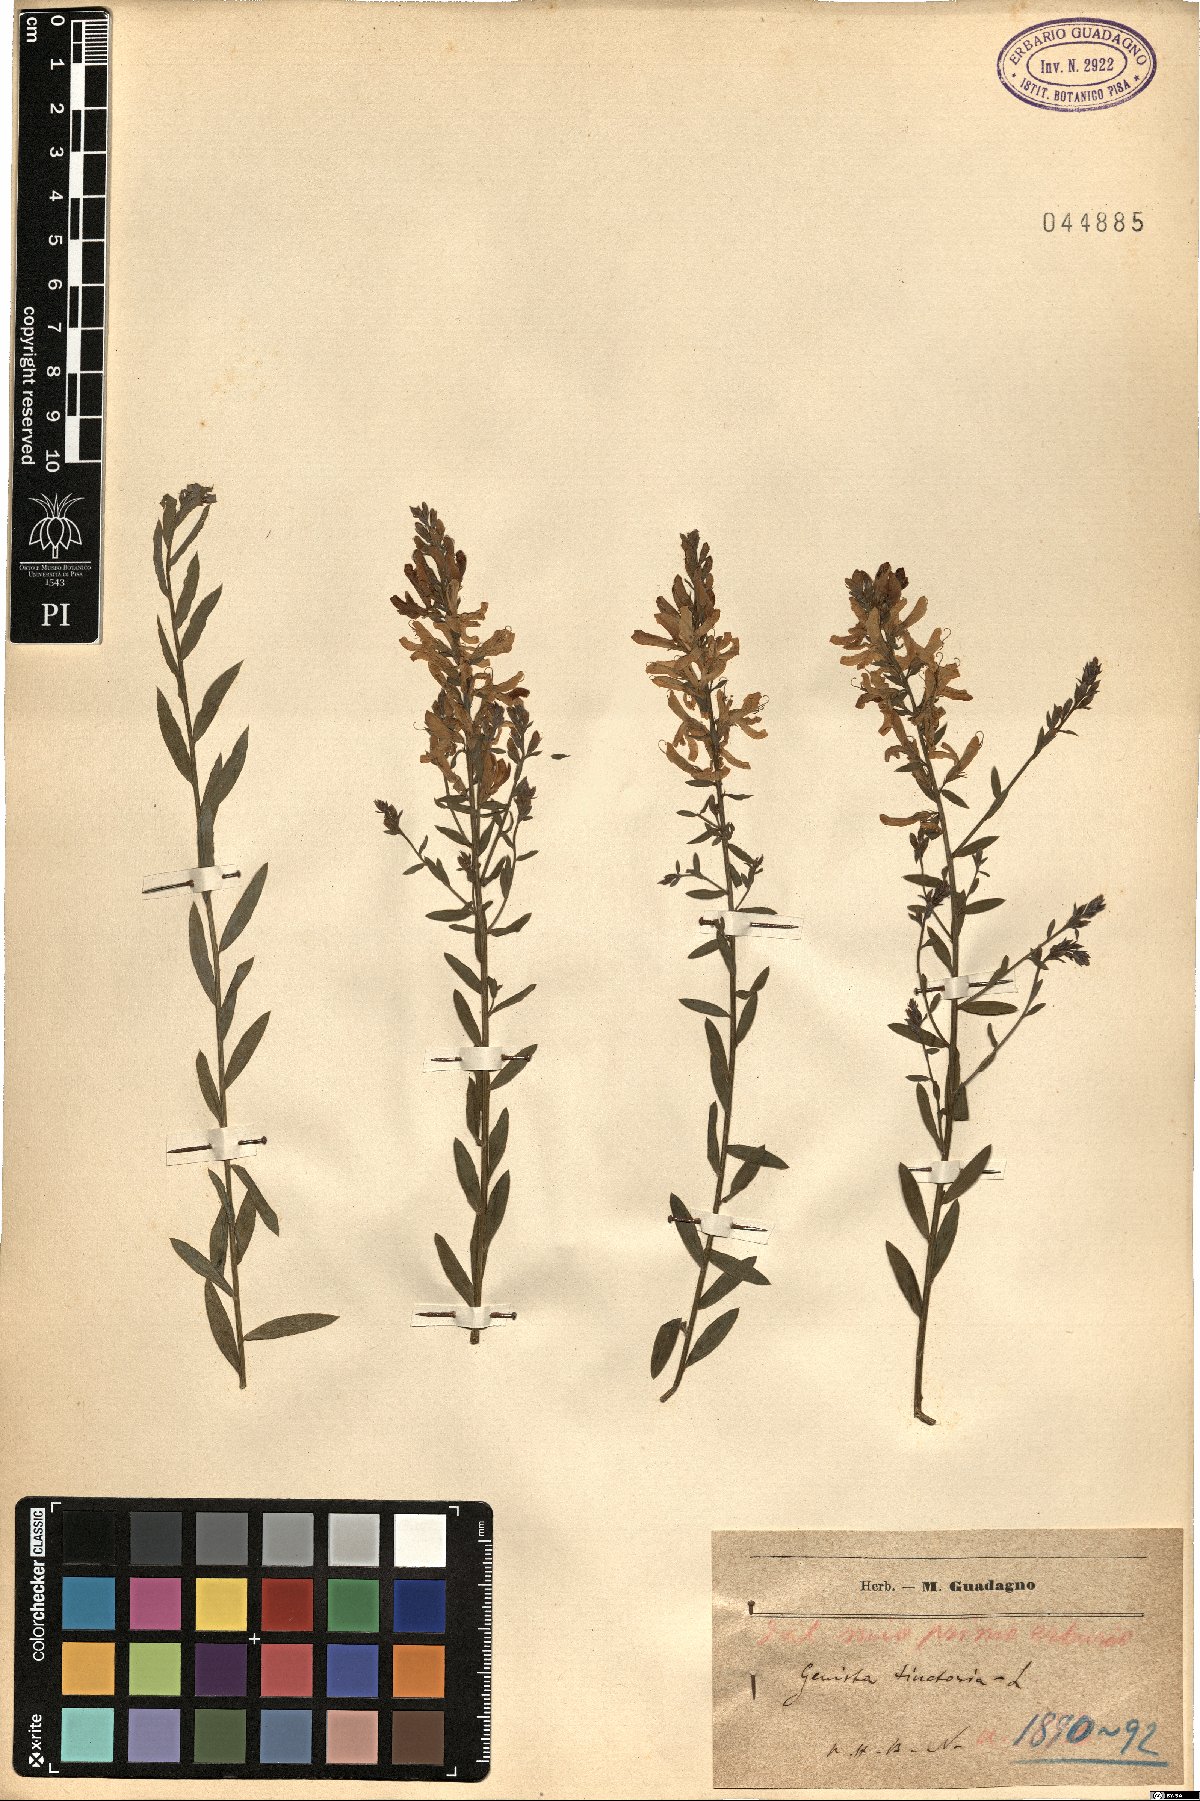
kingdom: Plantae
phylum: Tracheophyta
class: Magnoliopsida
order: Fabales
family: Fabaceae
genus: Genista
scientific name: Genista tinctoria
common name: Dyer's greenweed
